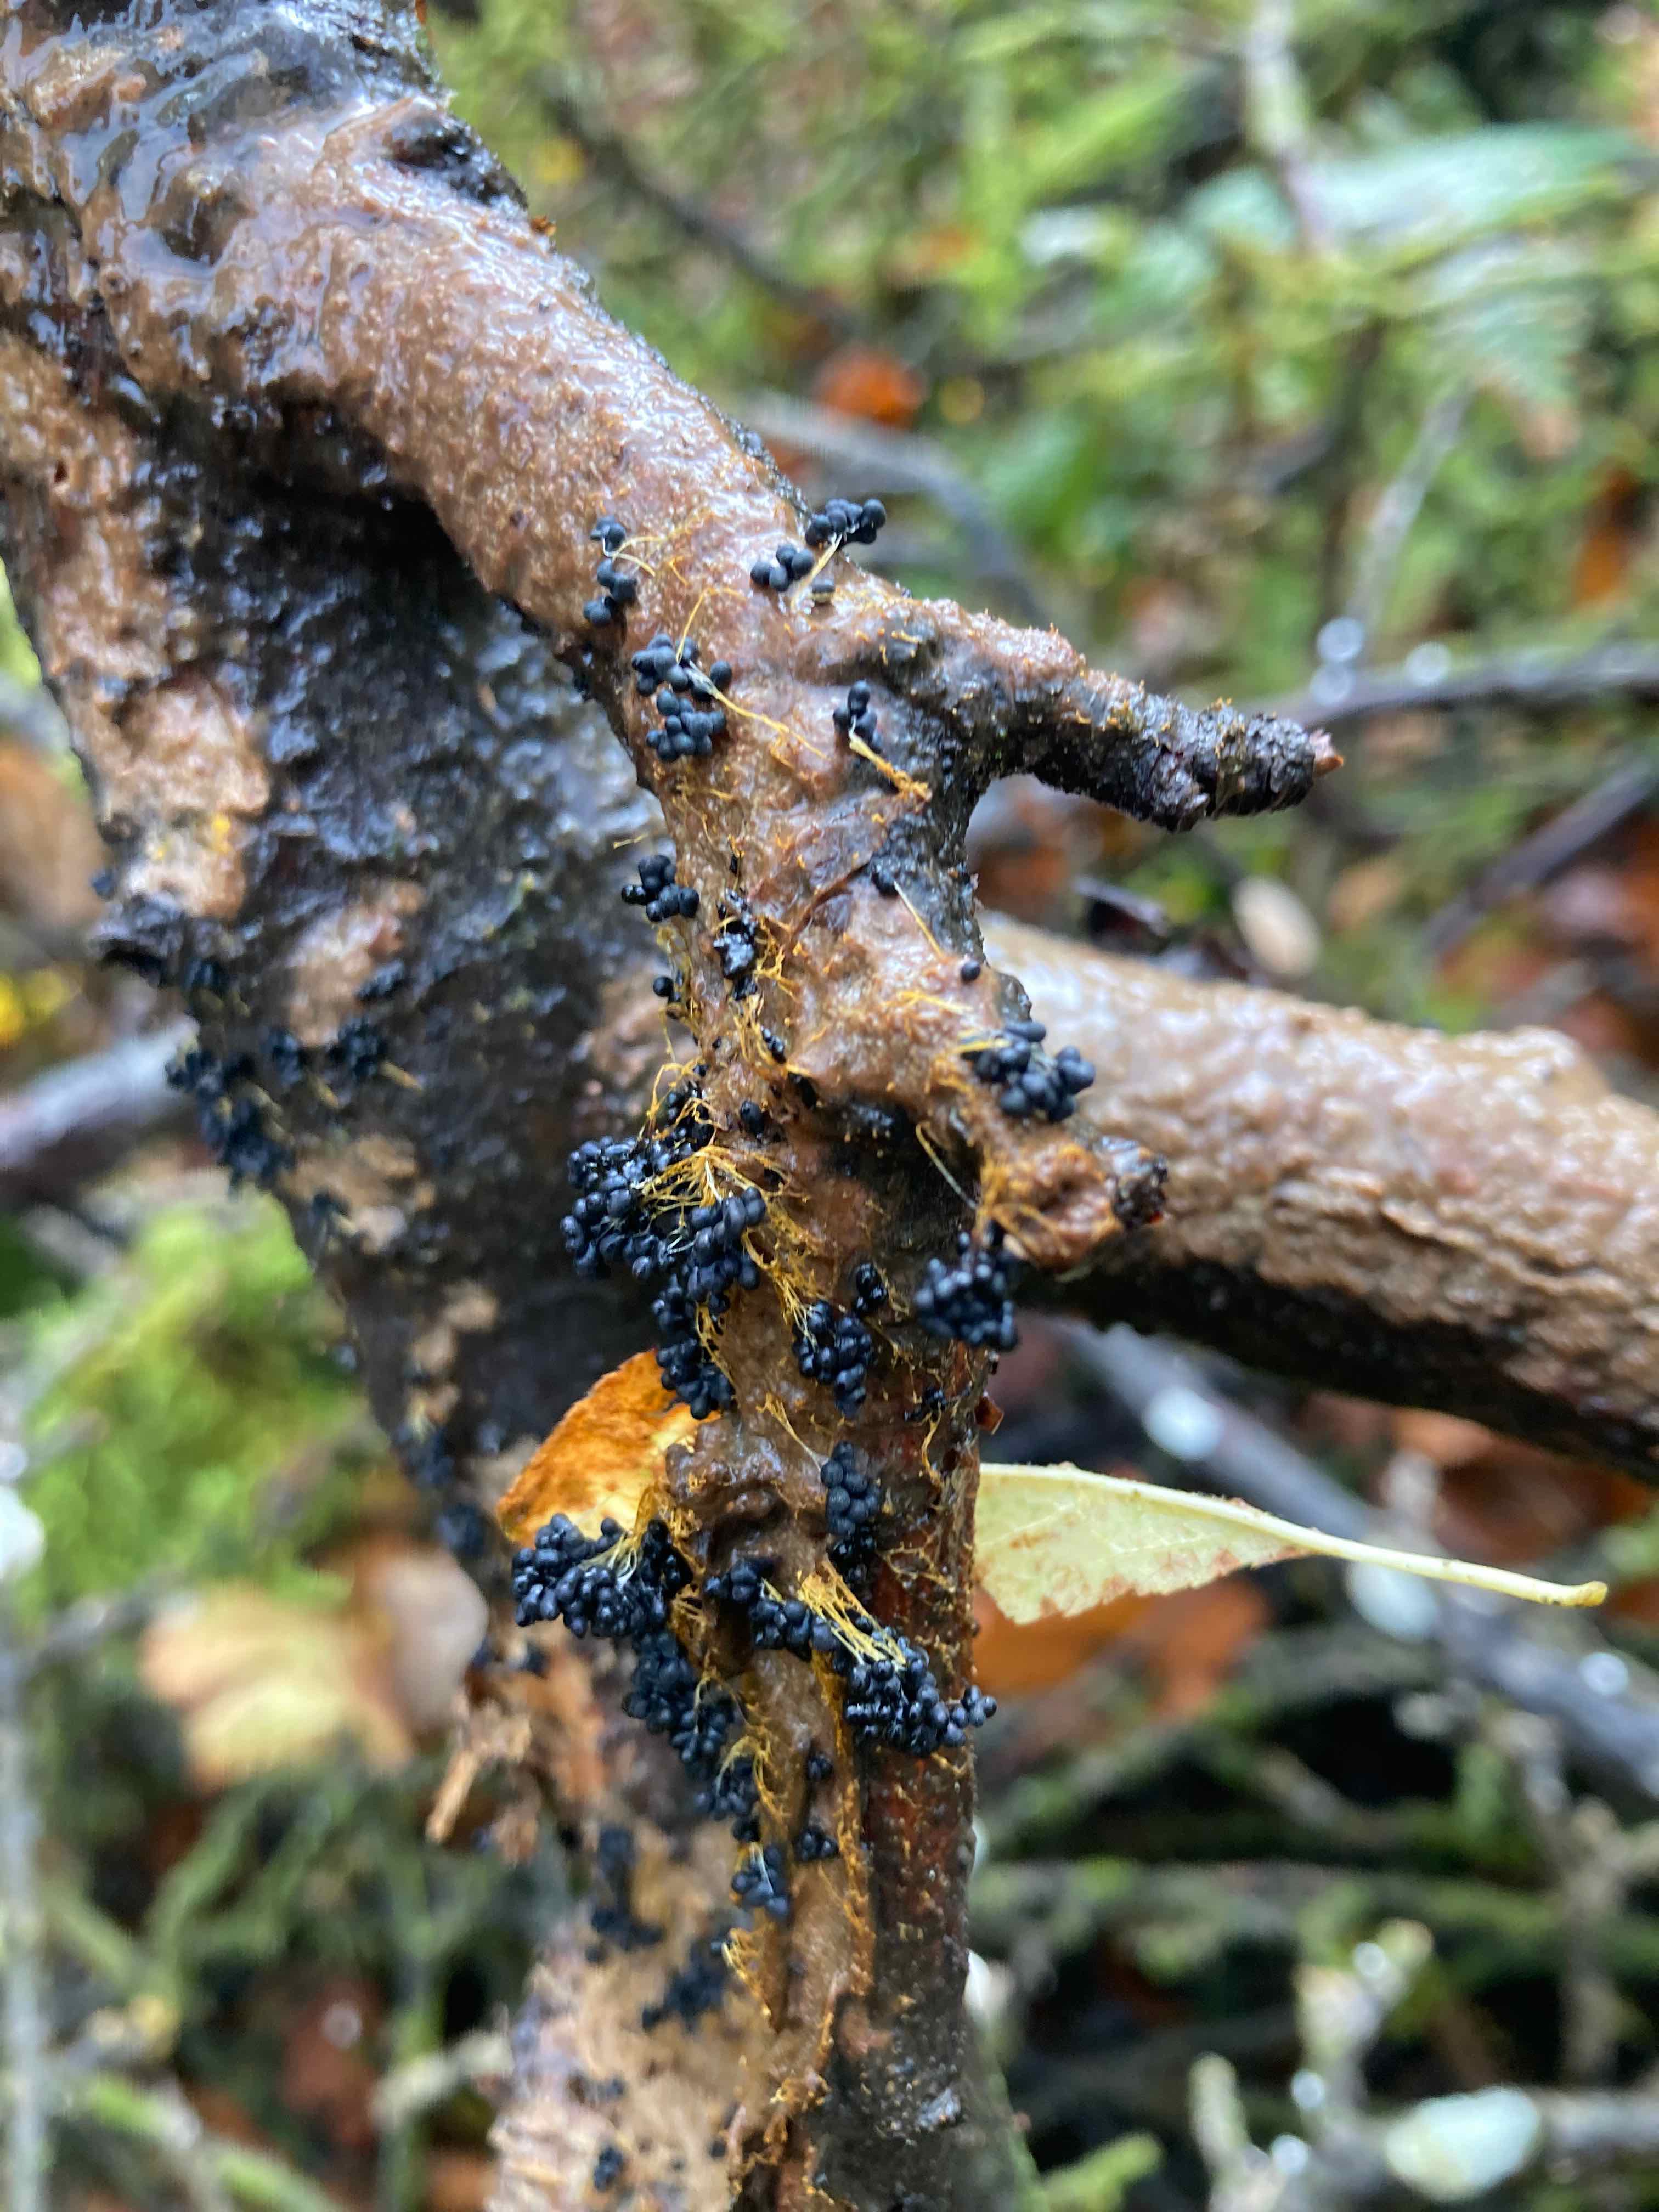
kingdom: Protozoa
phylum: Mycetozoa
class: Myxomycetes
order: Physarales
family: Physaraceae
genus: Badhamia
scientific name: Badhamia utricularis
